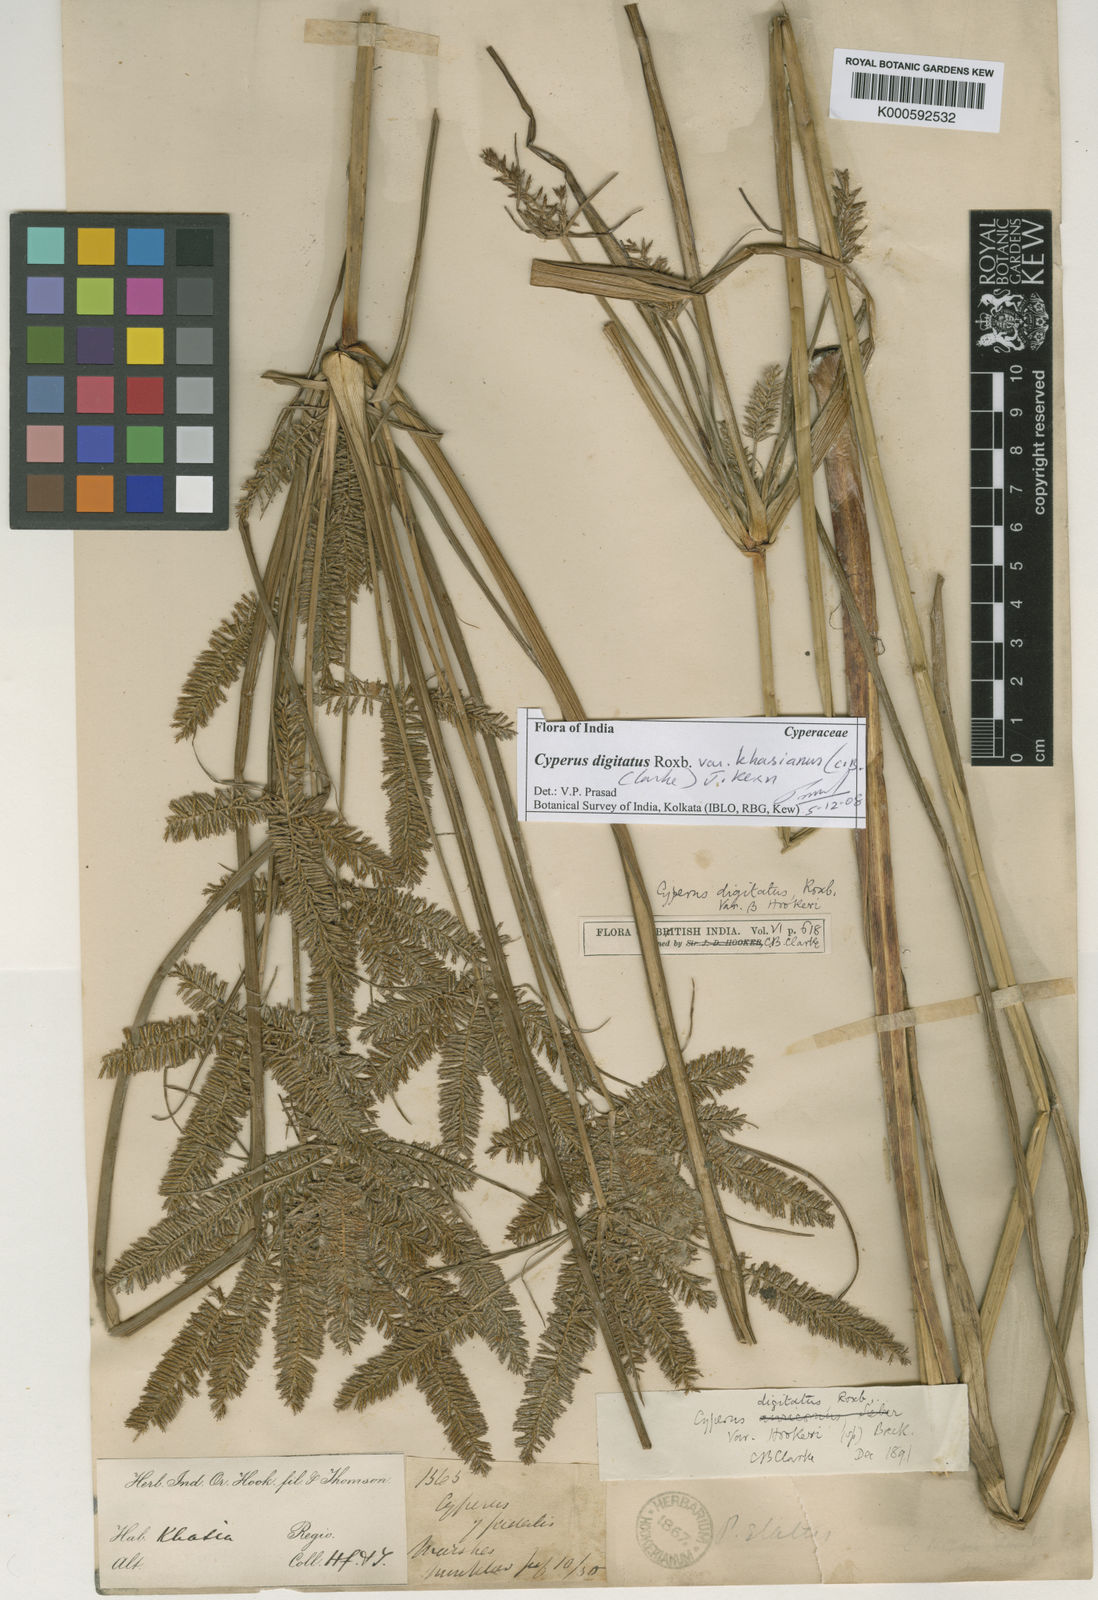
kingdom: Plantae
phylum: Tracheophyta
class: Liliopsida
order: Poales
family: Cyperaceae
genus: Cyperus
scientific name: Cyperus digitatus
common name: Finger flatsedge
